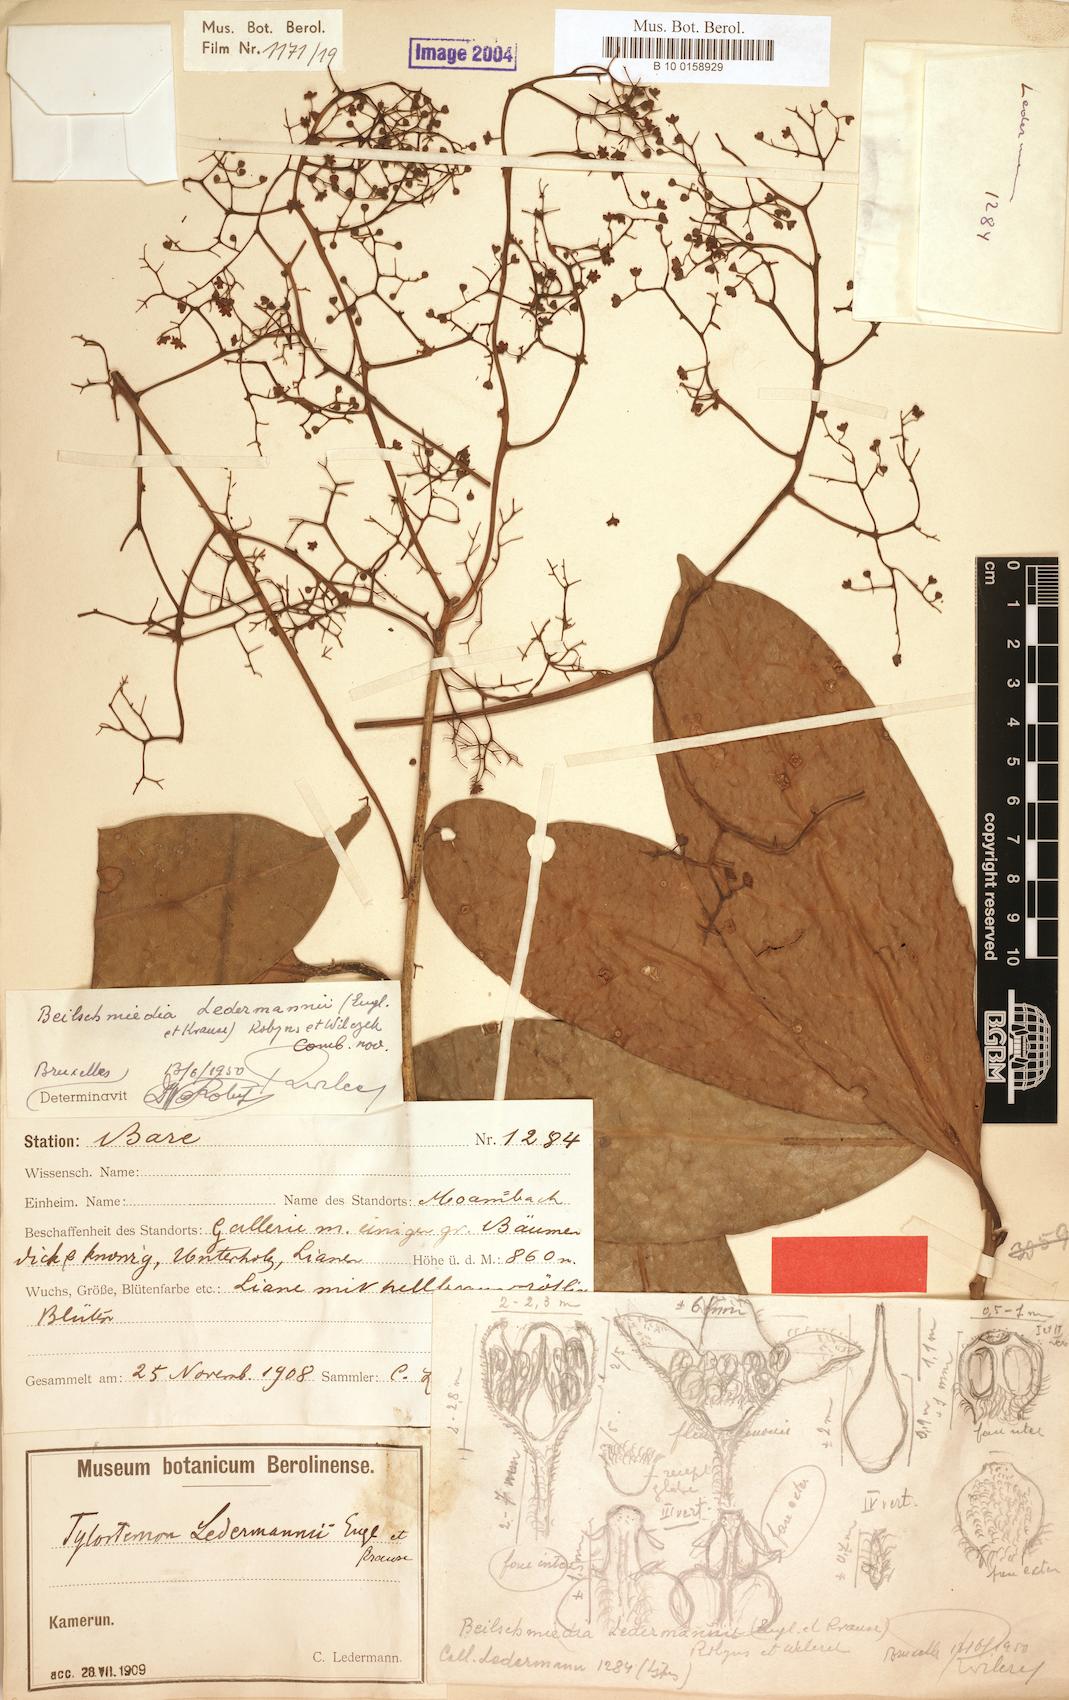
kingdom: Plantae
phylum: Tracheophyta
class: Magnoliopsida
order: Laurales
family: Lauraceae
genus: Beilschmiedia
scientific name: Beilschmiedia robynsiana
